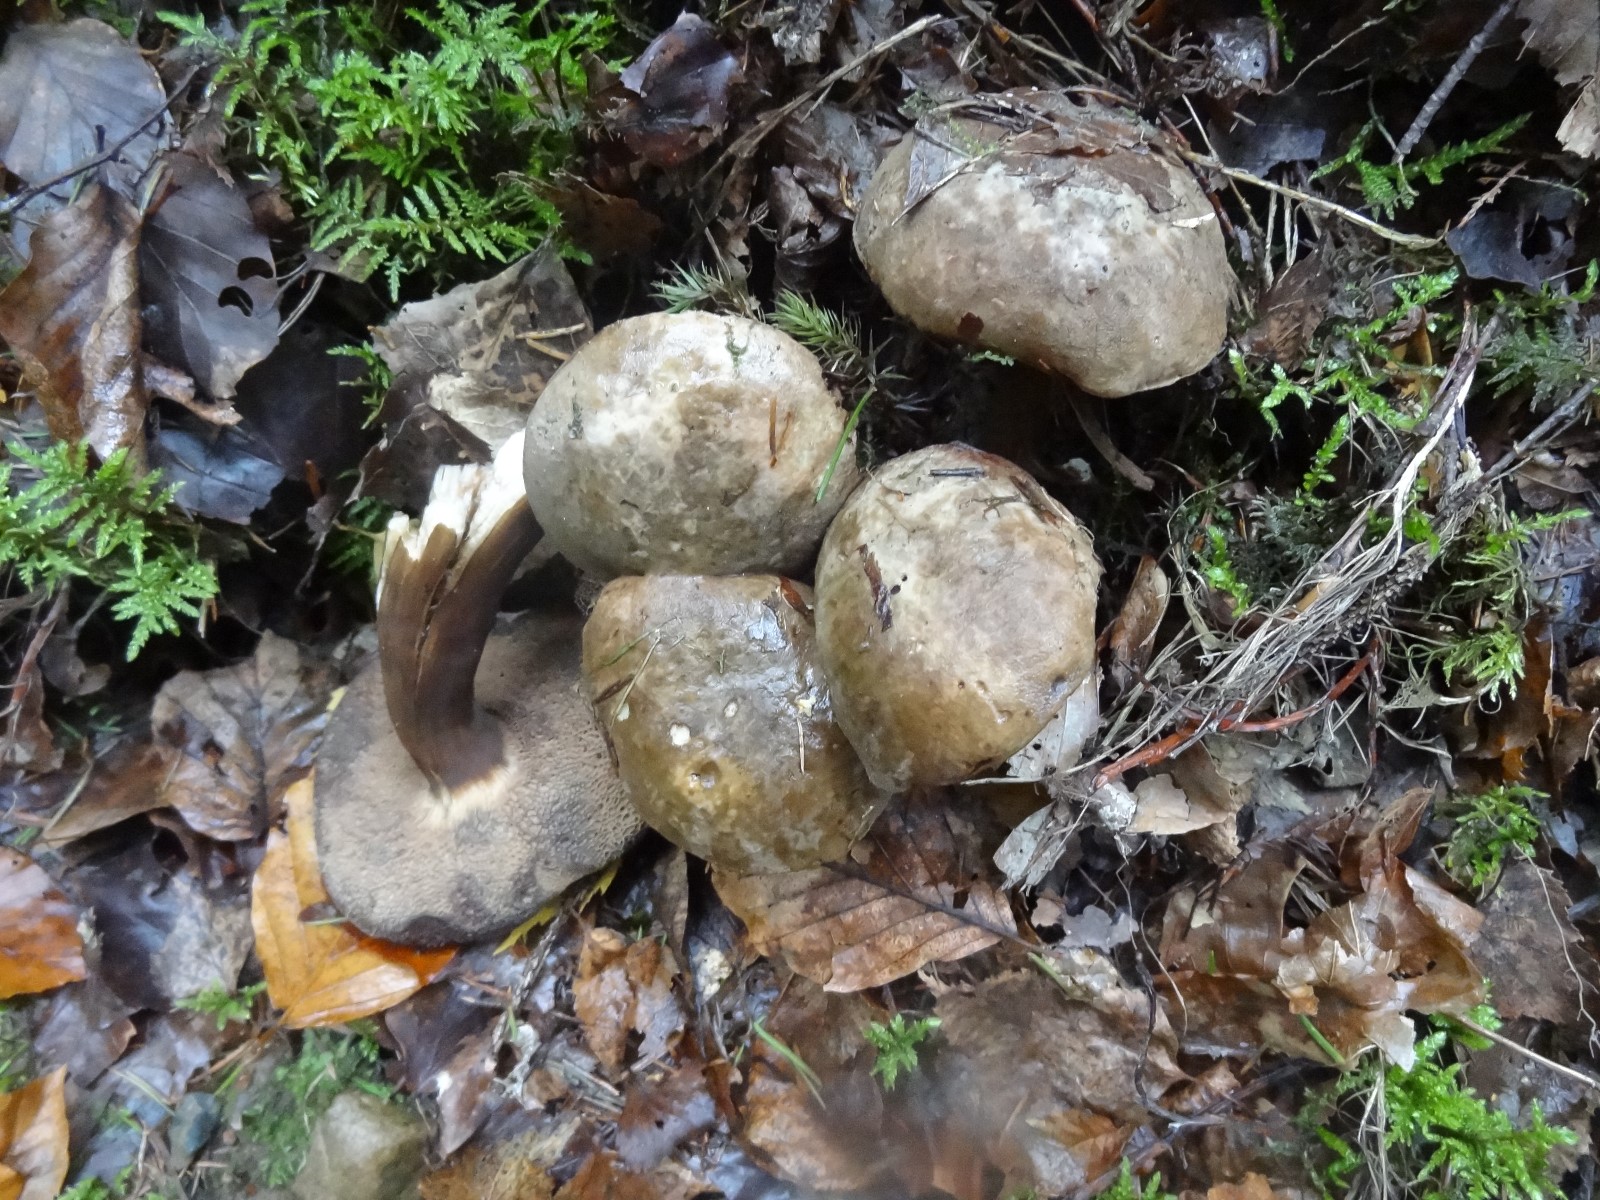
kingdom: Fungi
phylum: Basidiomycota
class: Agaricomycetes
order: Boletales
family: Boletaceae
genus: Porphyrellus
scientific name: Porphyrellus porphyrosporus
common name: sodrørhat
